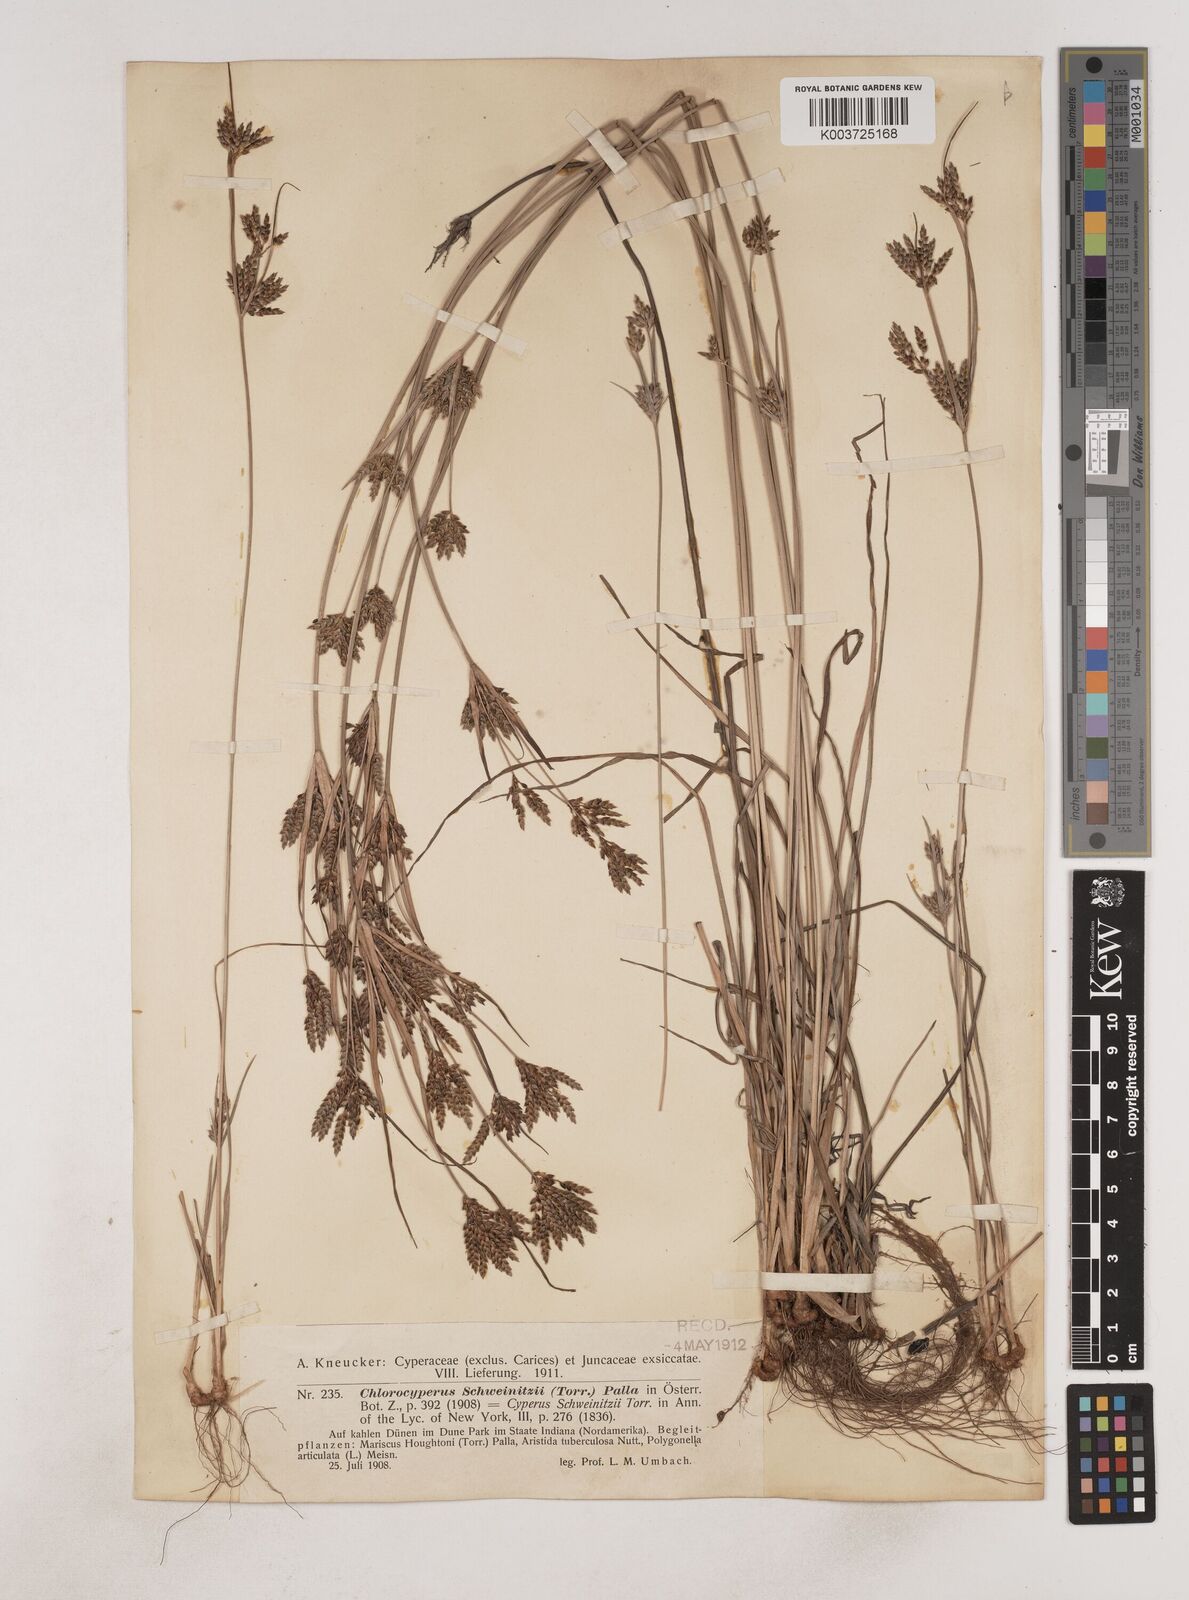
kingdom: Plantae
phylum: Tracheophyta
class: Liliopsida
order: Poales
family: Cyperaceae
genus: Cyperus
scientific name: Cyperus schweinitzii
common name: Schweinitz's cyperus
